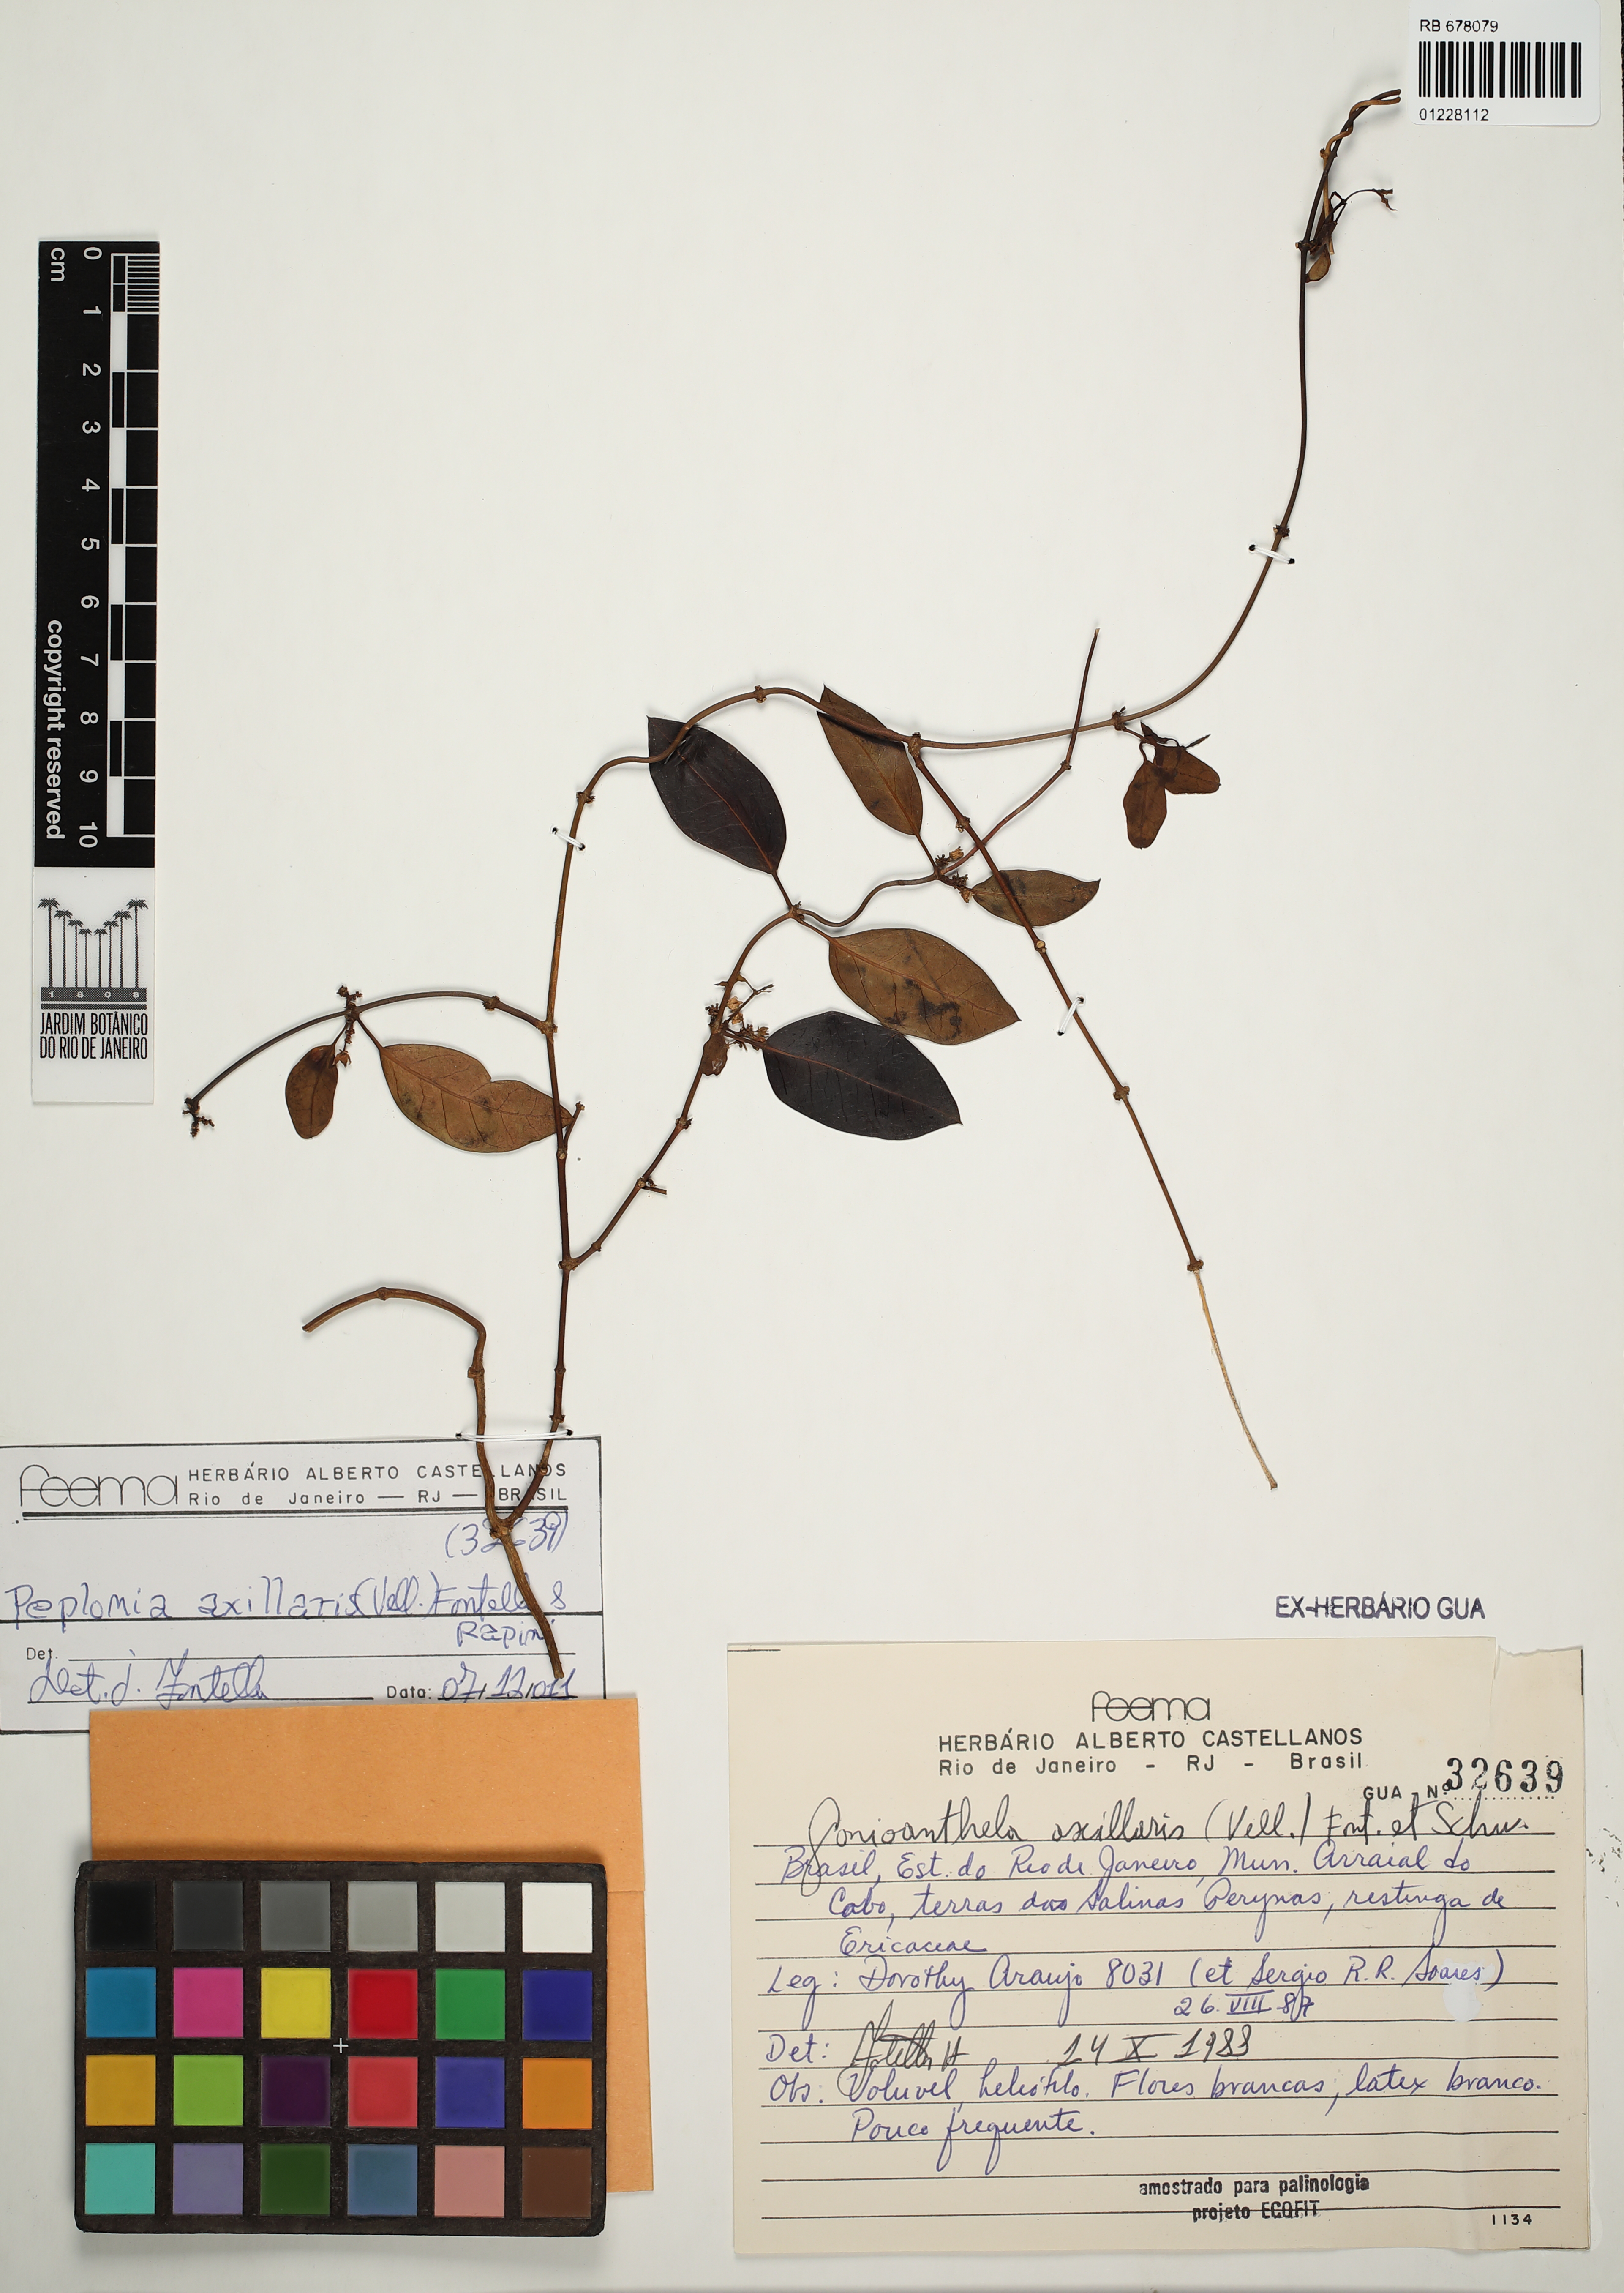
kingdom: Plantae
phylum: Tracheophyta
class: Magnoliopsida
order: Gentianales
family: Apocynaceae
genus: Peplonia
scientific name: Peplonia axillaris
